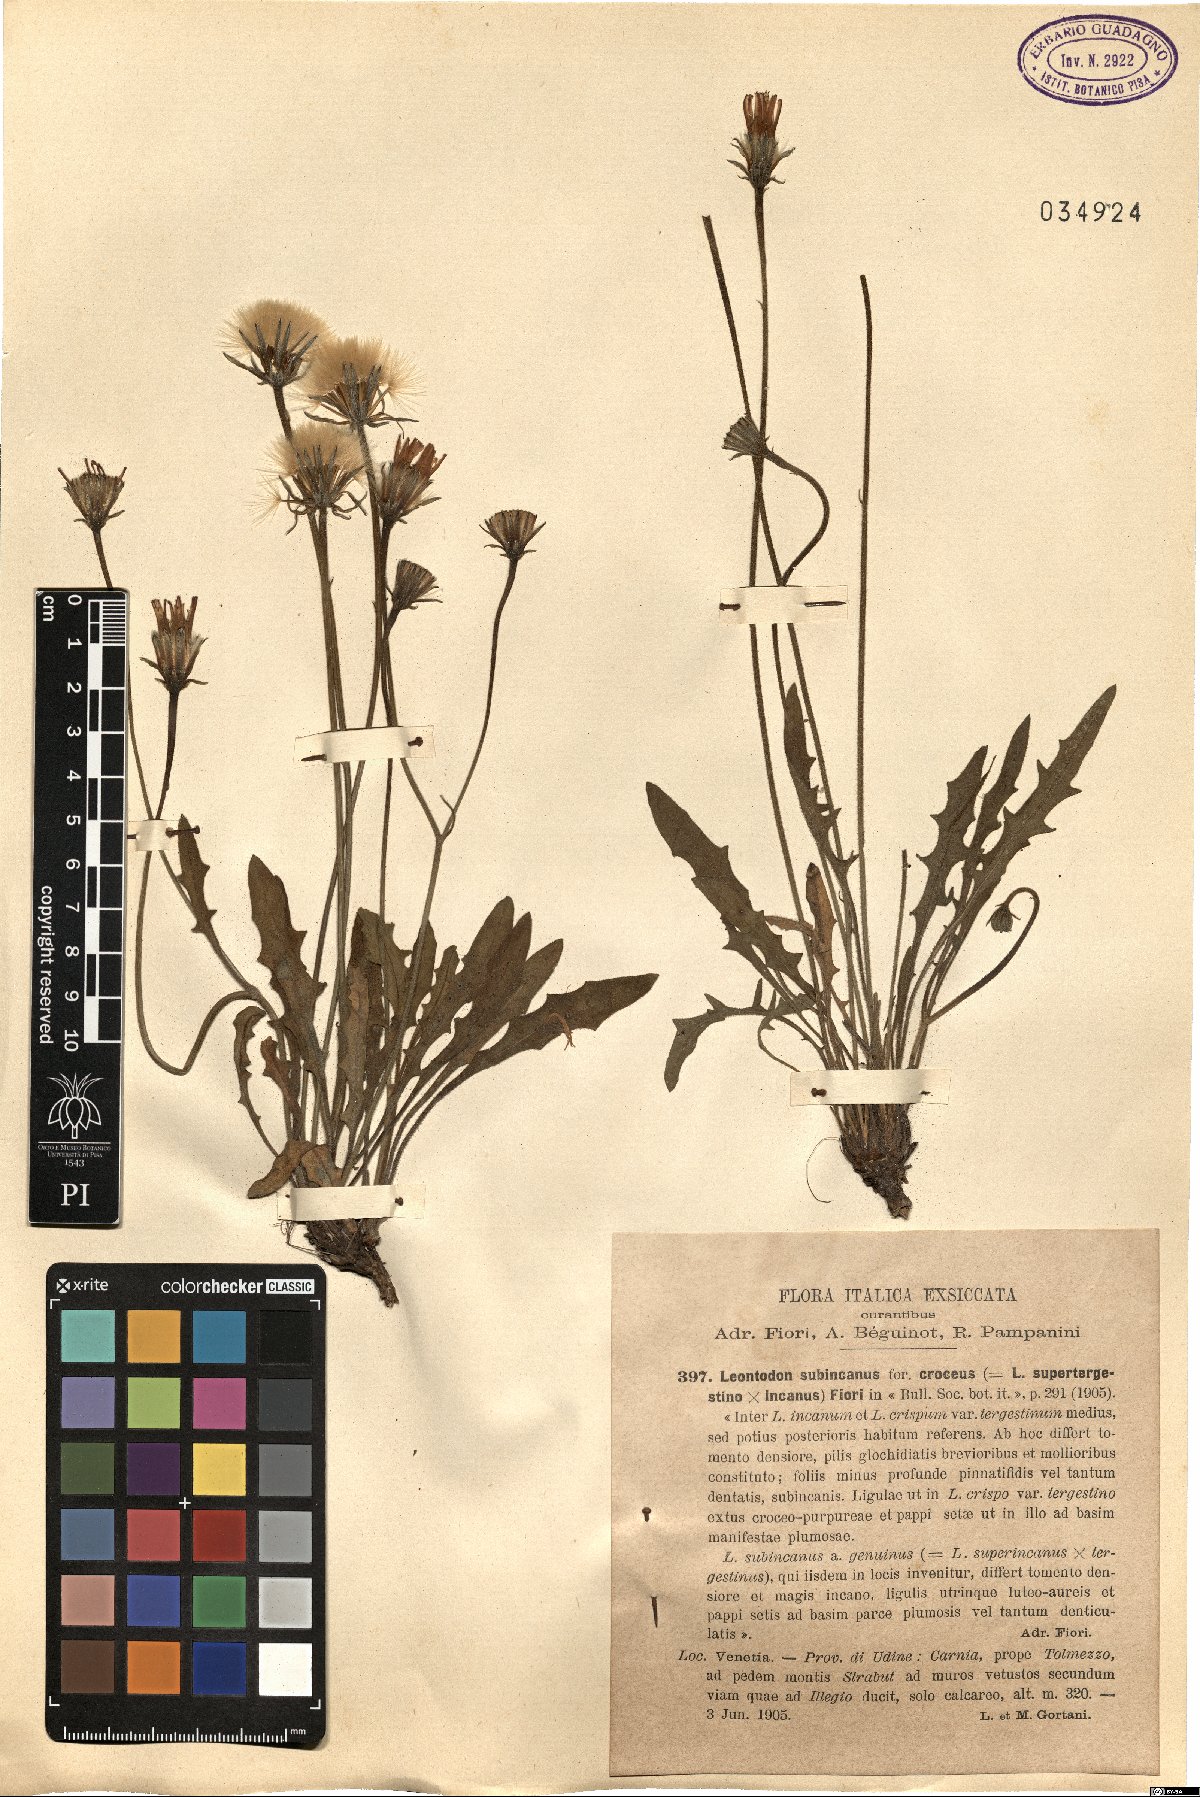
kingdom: Plantae
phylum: Tracheophyta
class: Magnoliopsida
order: Asterales
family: Asteraceae
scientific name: Asteraceae
